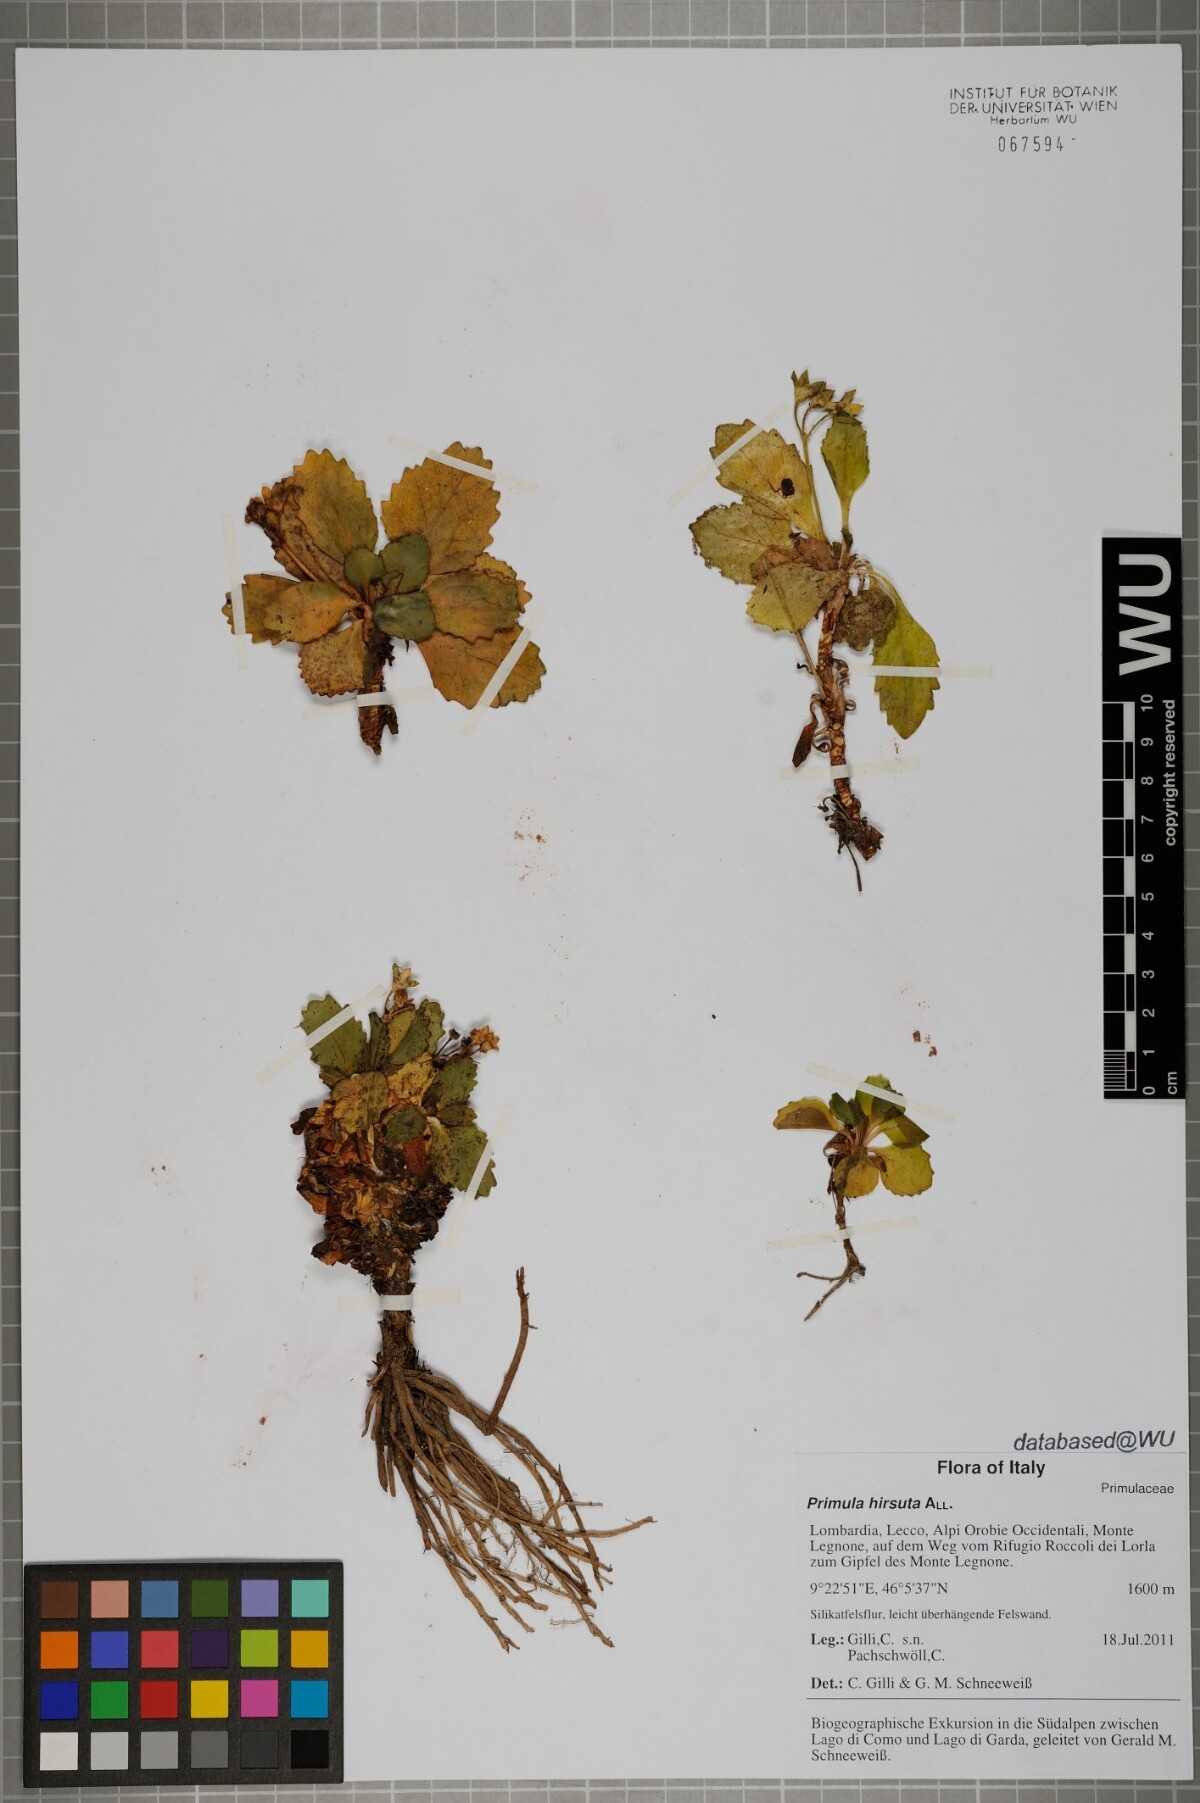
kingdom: Plantae
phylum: Tracheophyta
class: Magnoliopsida
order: Ericales
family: Primulaceae
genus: Primula
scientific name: Primula hirsuta
